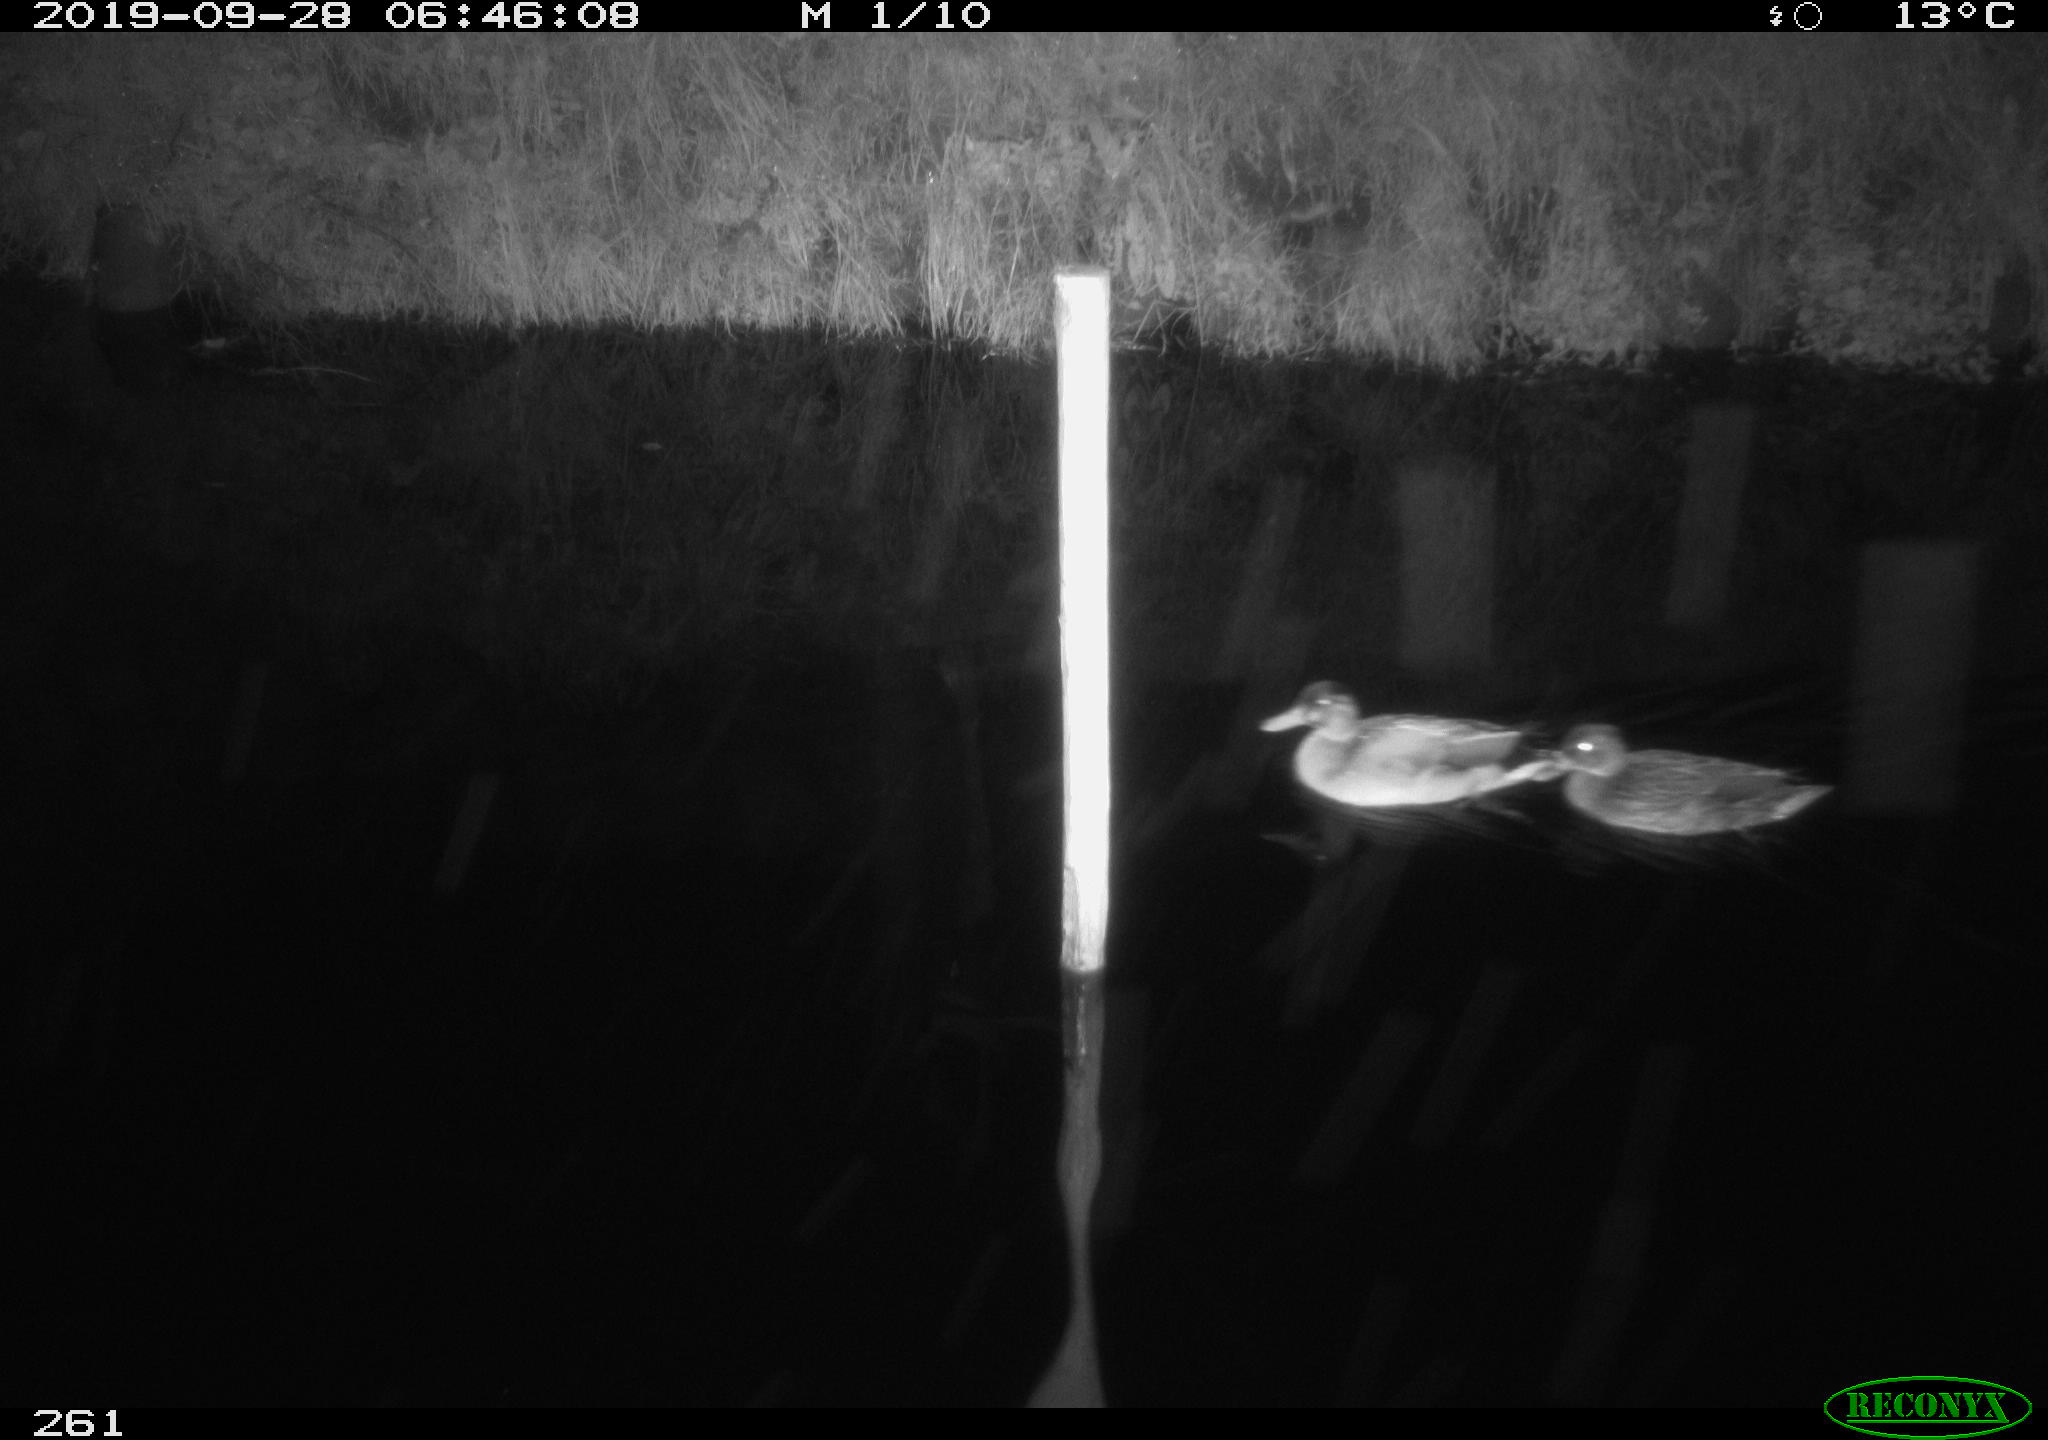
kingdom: Animalia
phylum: Chordata
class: Aves
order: Anseriformes
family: Anatidae
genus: Anas
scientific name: Anas platyrhynchos
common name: Mallard
